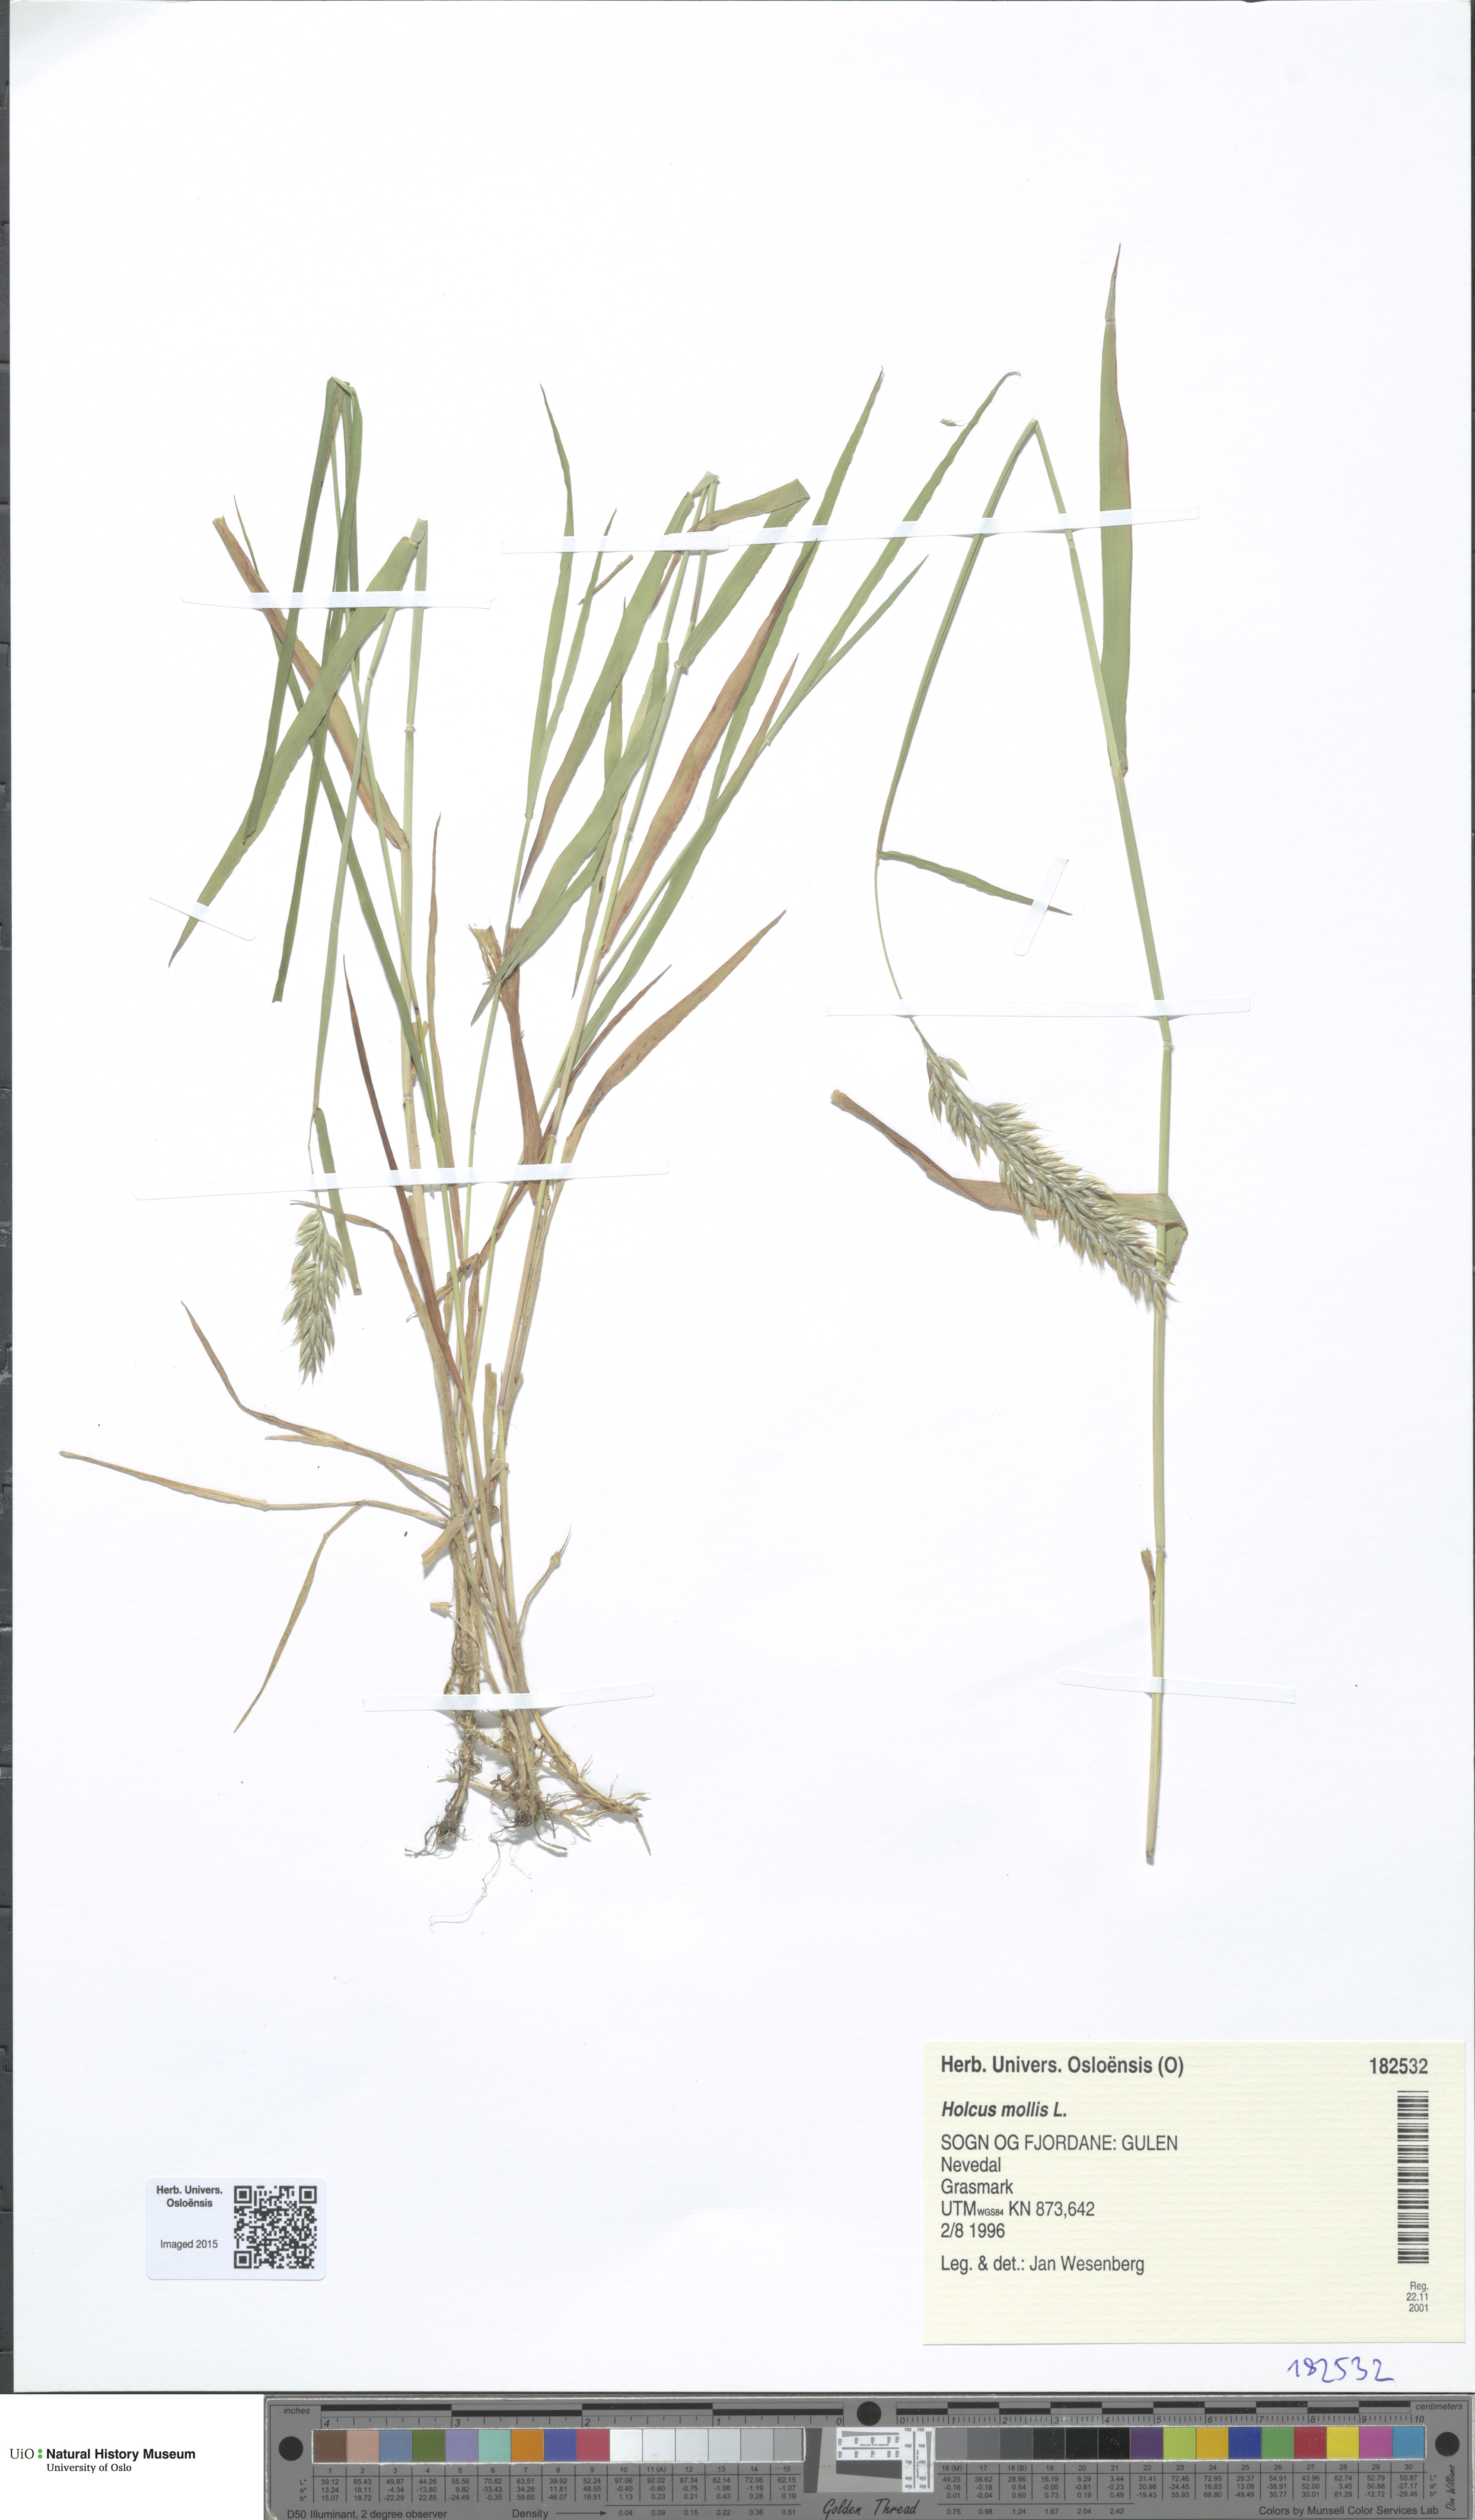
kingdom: Plantae
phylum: Tracheophyta
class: Liliopsida
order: Poales
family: Poaceae
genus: Holcus
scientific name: Holcus mollis
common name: Creeping velvetgrass
